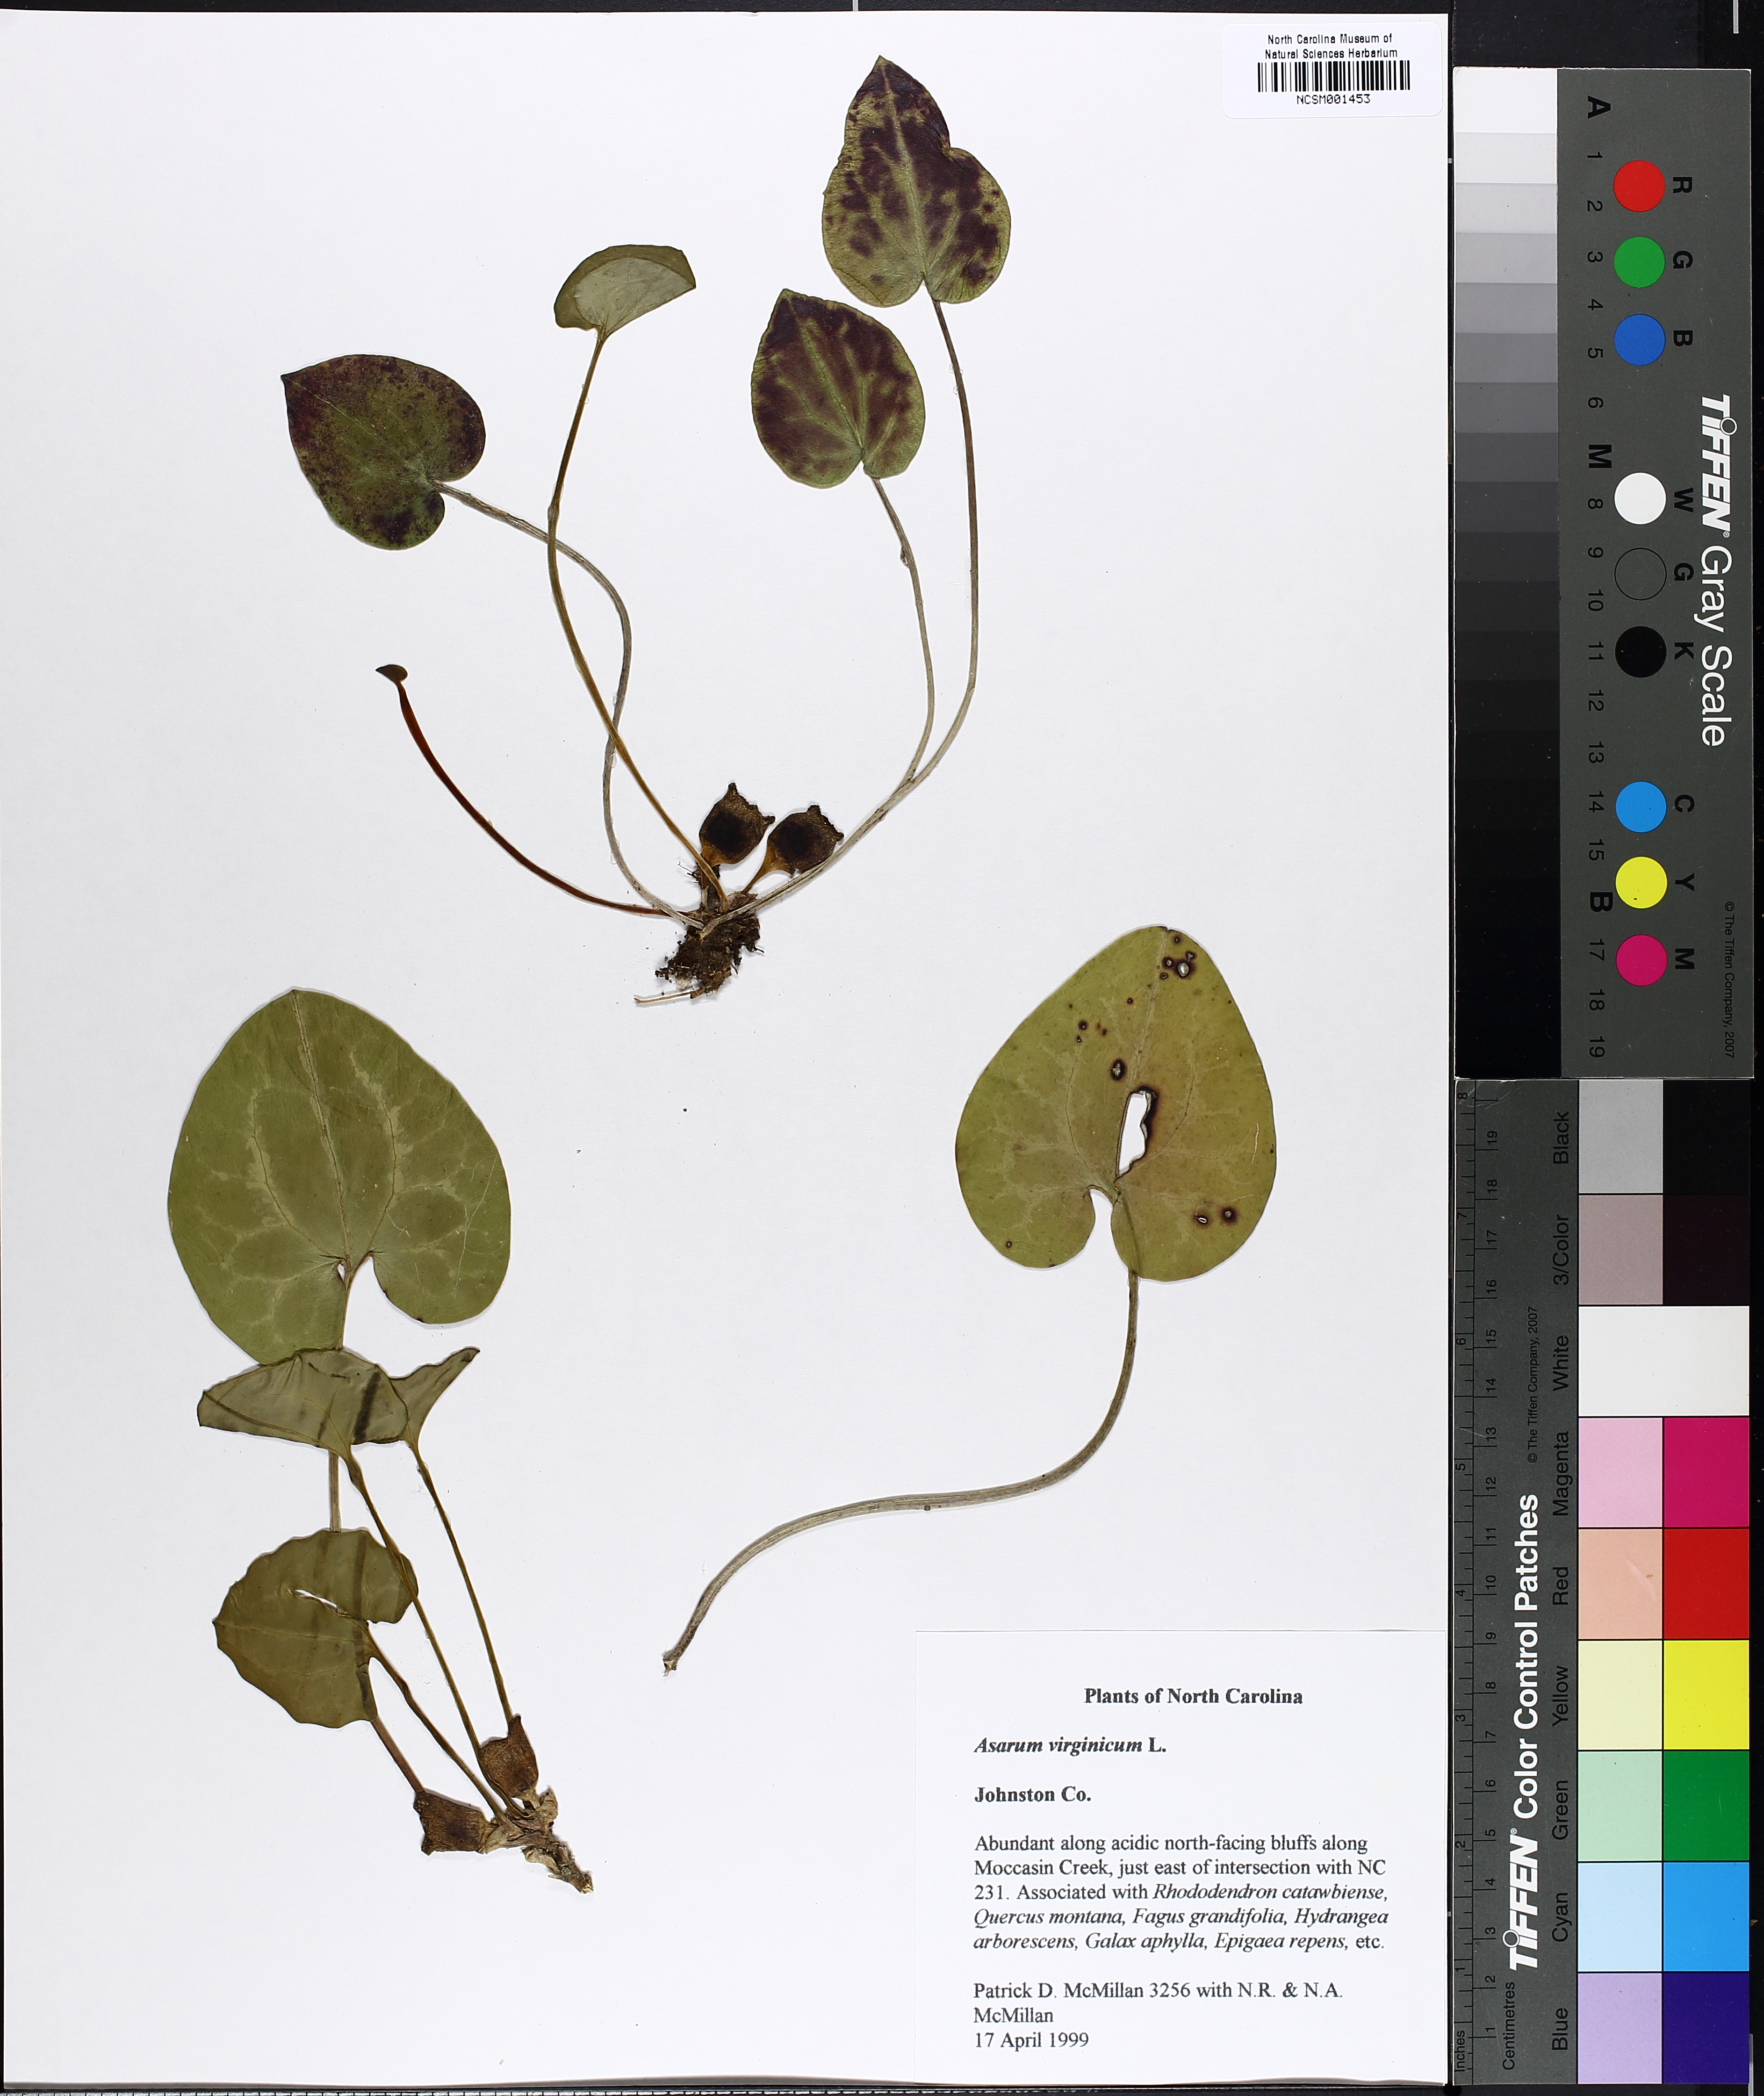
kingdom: Plantae
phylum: Tracheophyta
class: Magnoliopsida
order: Piperales
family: Aristolochiaceae
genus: Hexastylis
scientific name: Hexastylis virginica
